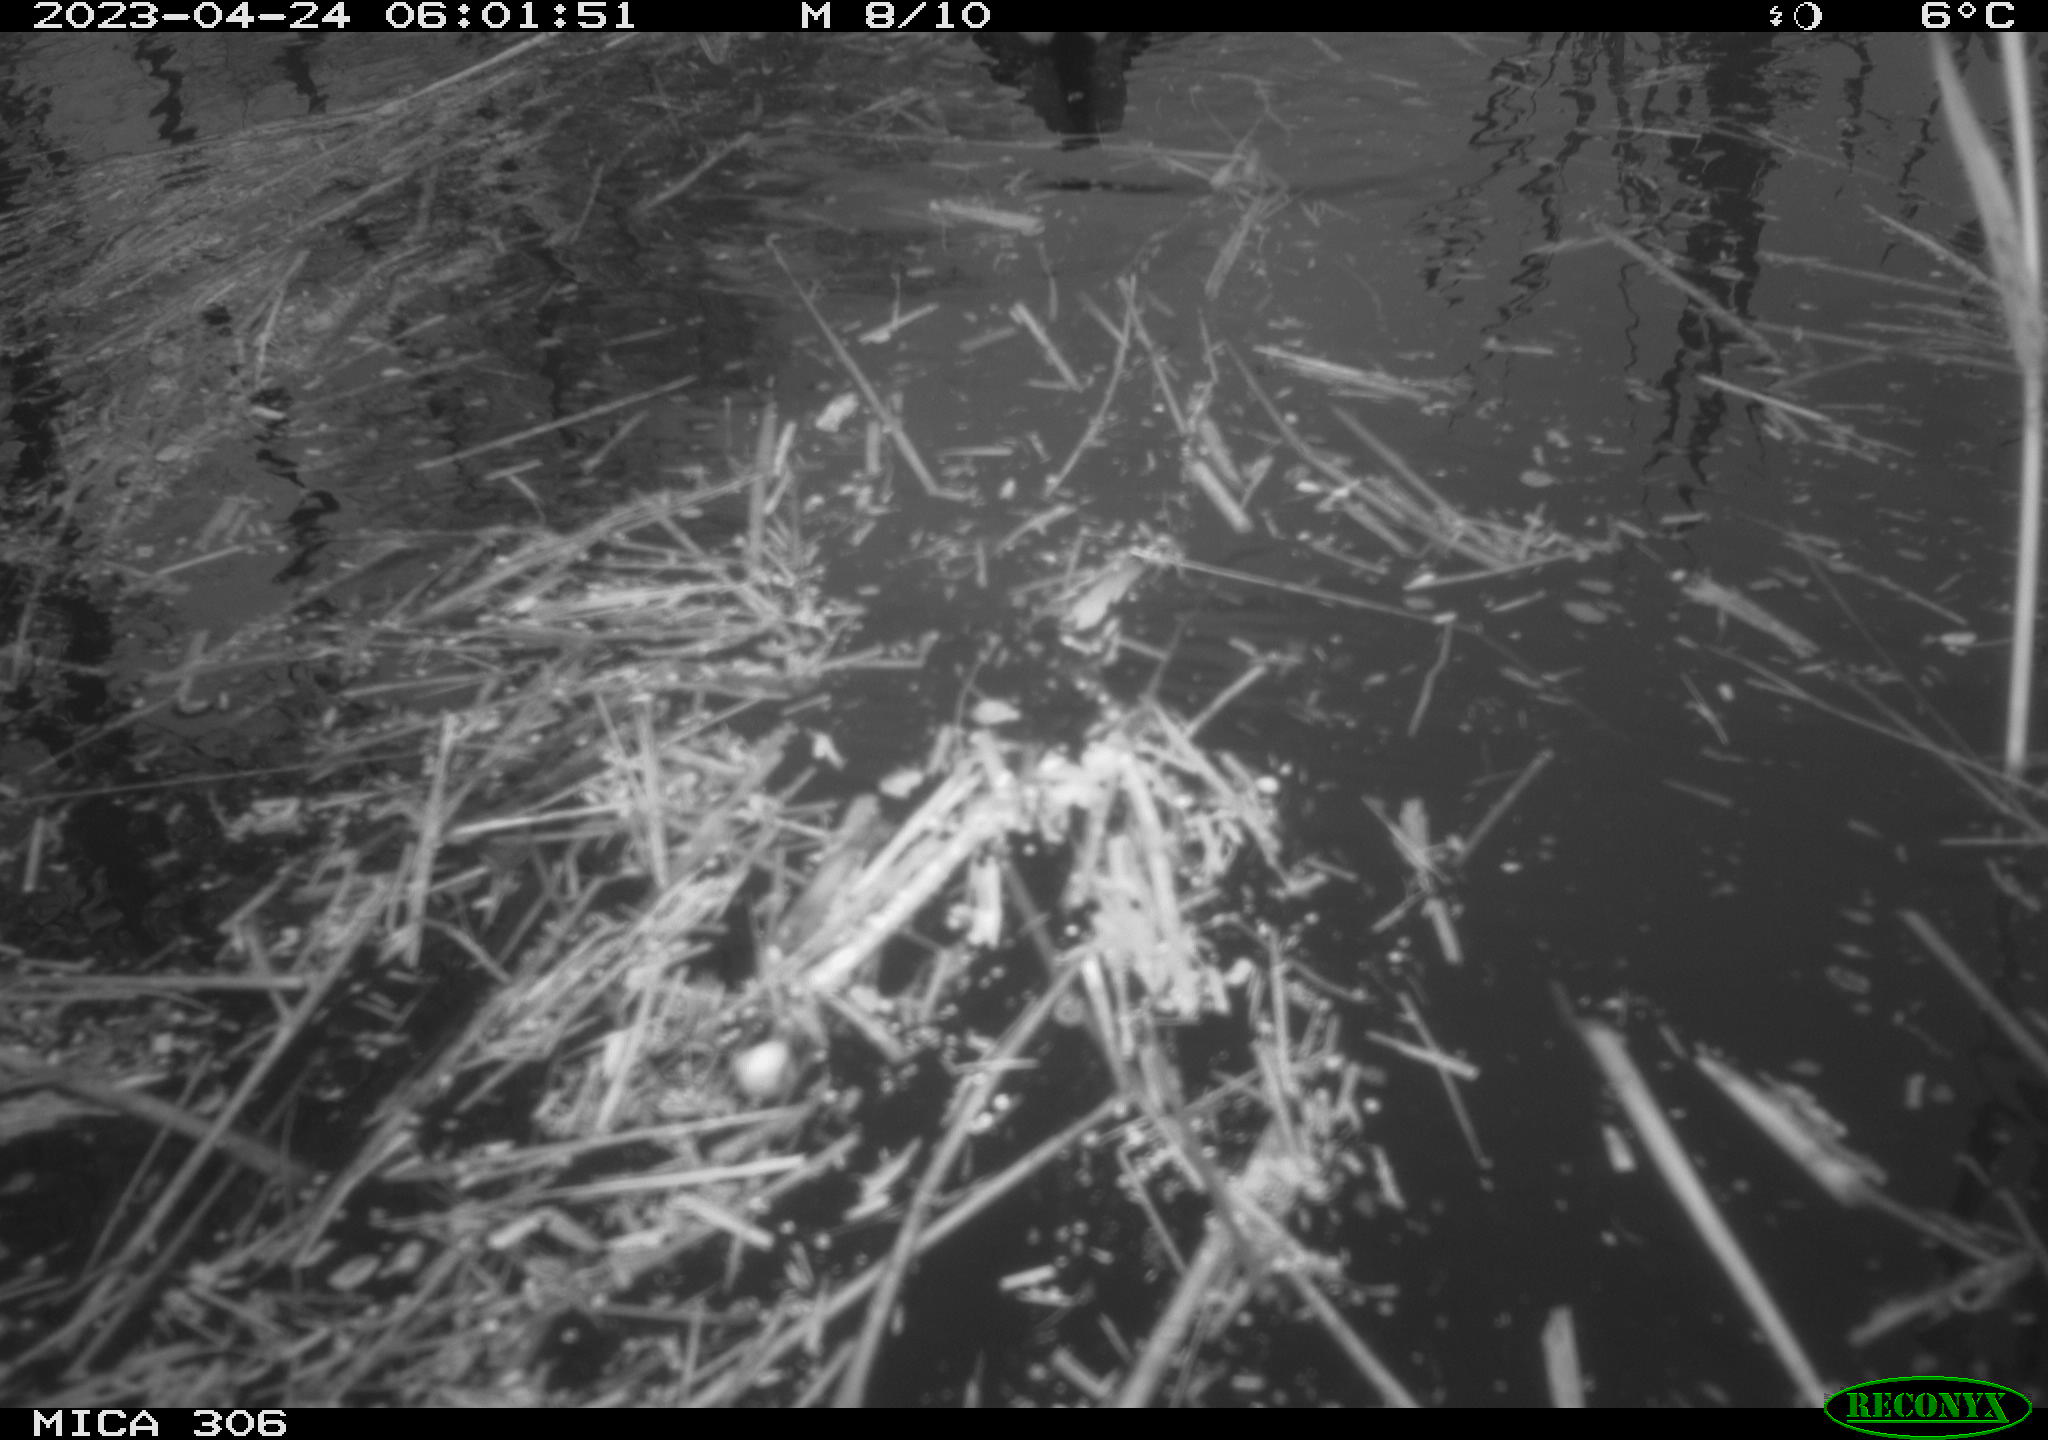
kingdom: Animalia
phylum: Chordata
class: Aves
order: Gruiformes
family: Rallidae
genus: Gallinula
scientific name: Gallinula chloropus
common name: Common moorhen
